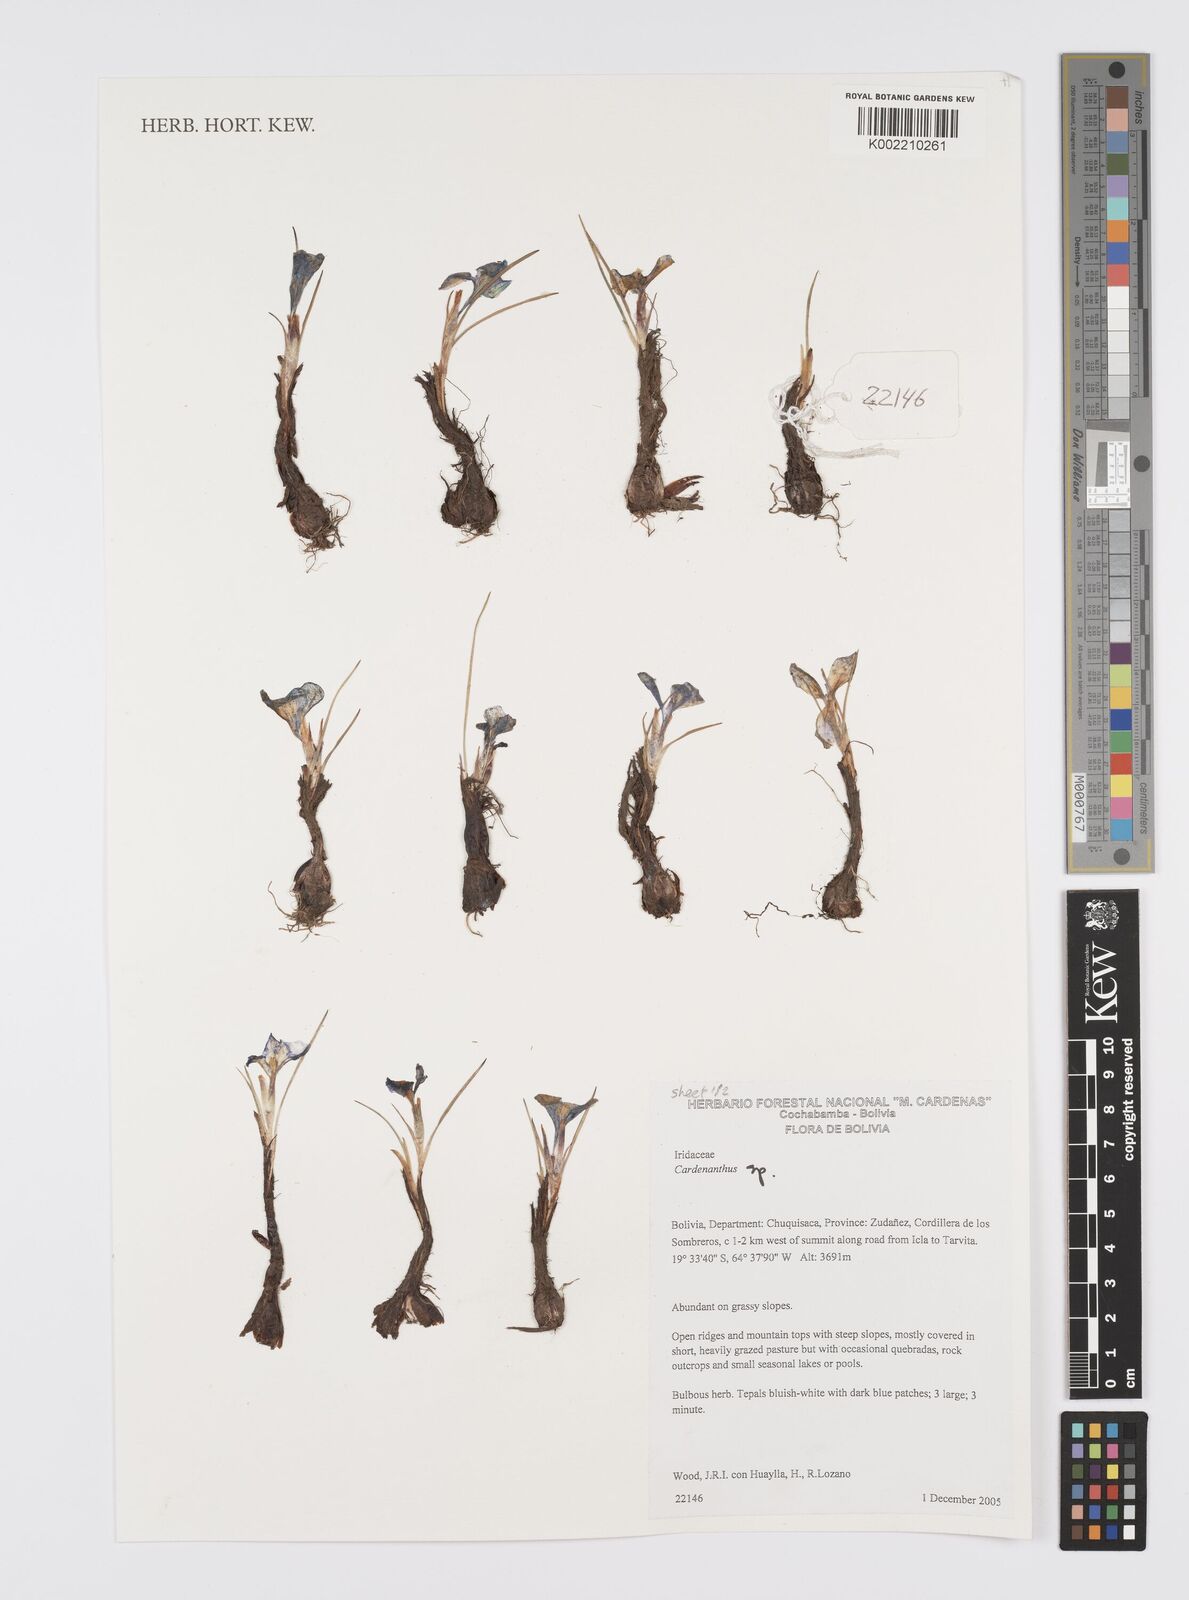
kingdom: Plantae
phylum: Tracheophyta
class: Liliopsida
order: Asparagales
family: Iridaceae
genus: Mastigostyla
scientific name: Mastigostyla
